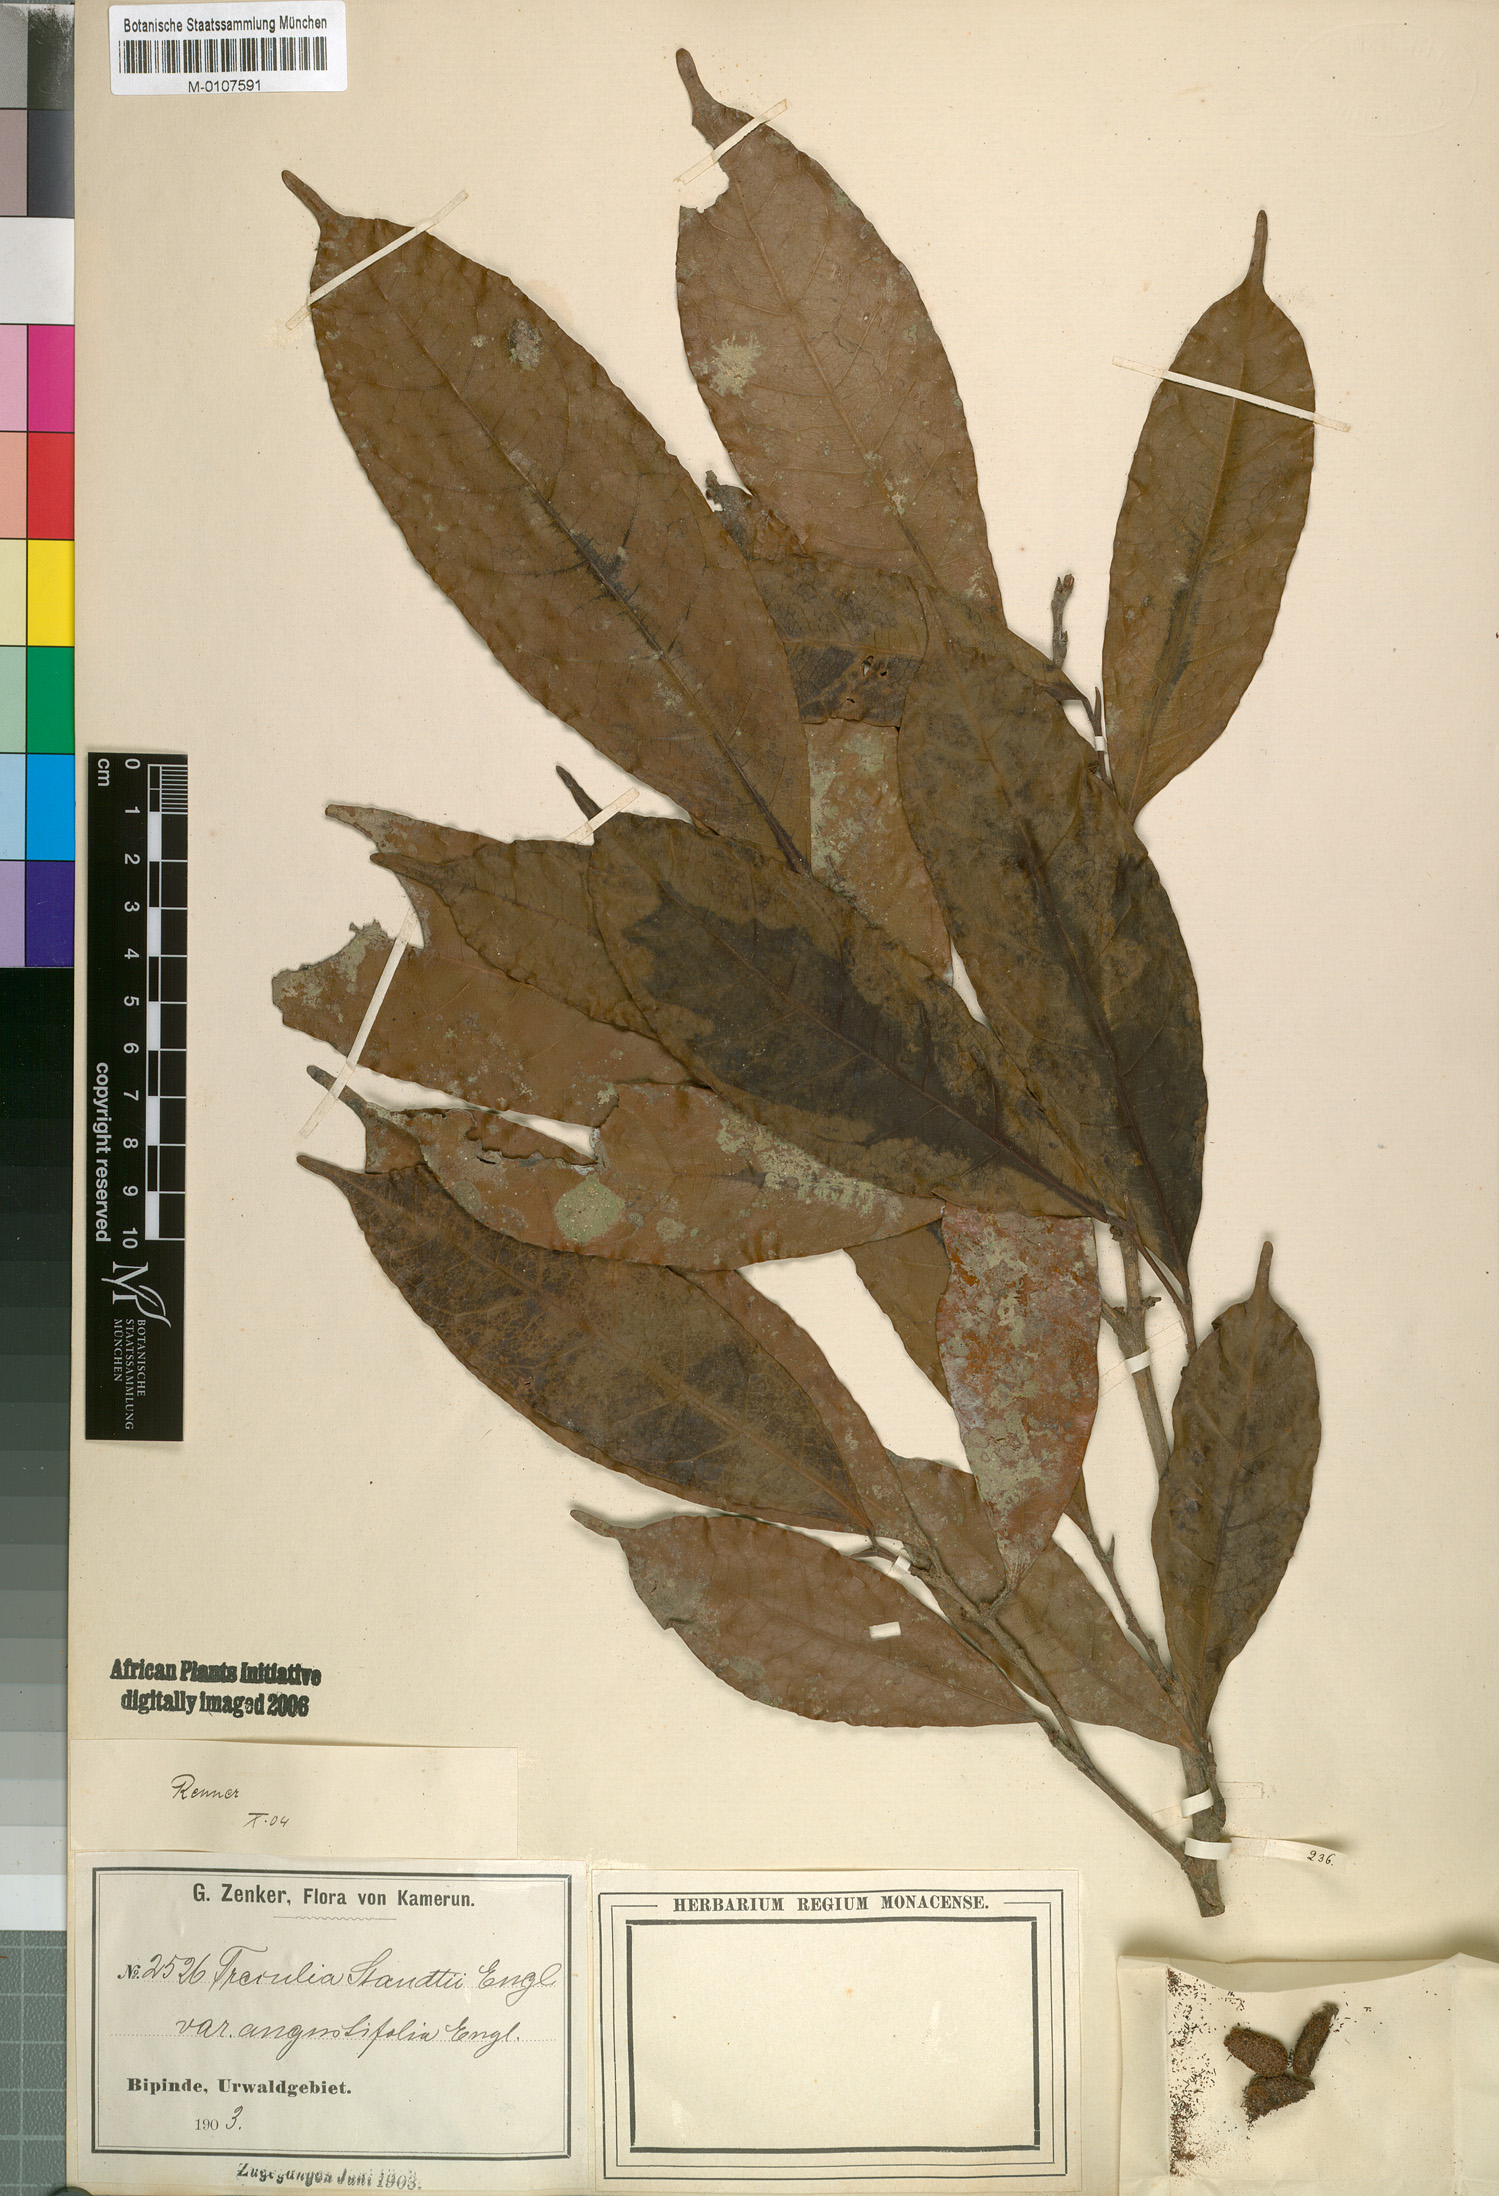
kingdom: Plantae
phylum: Tracheophyta
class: Magnoliopsida
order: Rosales
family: Moraceae
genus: Dorstenia
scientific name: Dorstenia
